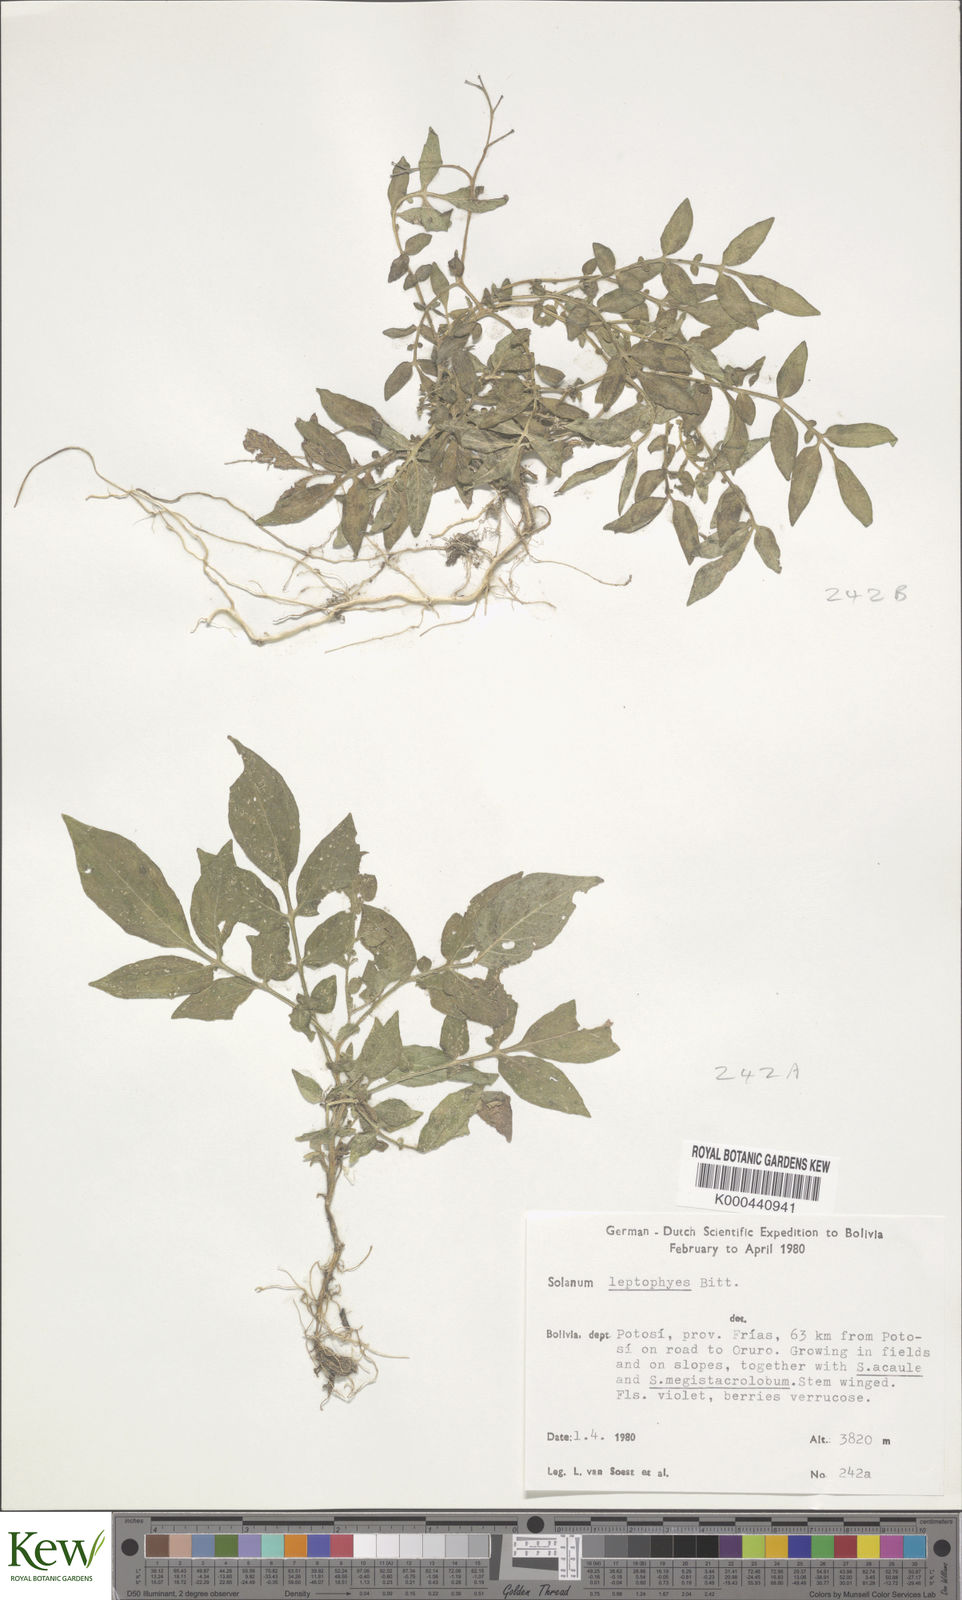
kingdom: Plantae
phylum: Tracheophyta
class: Magnoliopsida
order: Solanales
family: Solanaceae
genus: Solanum
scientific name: Solanum brevicaule
